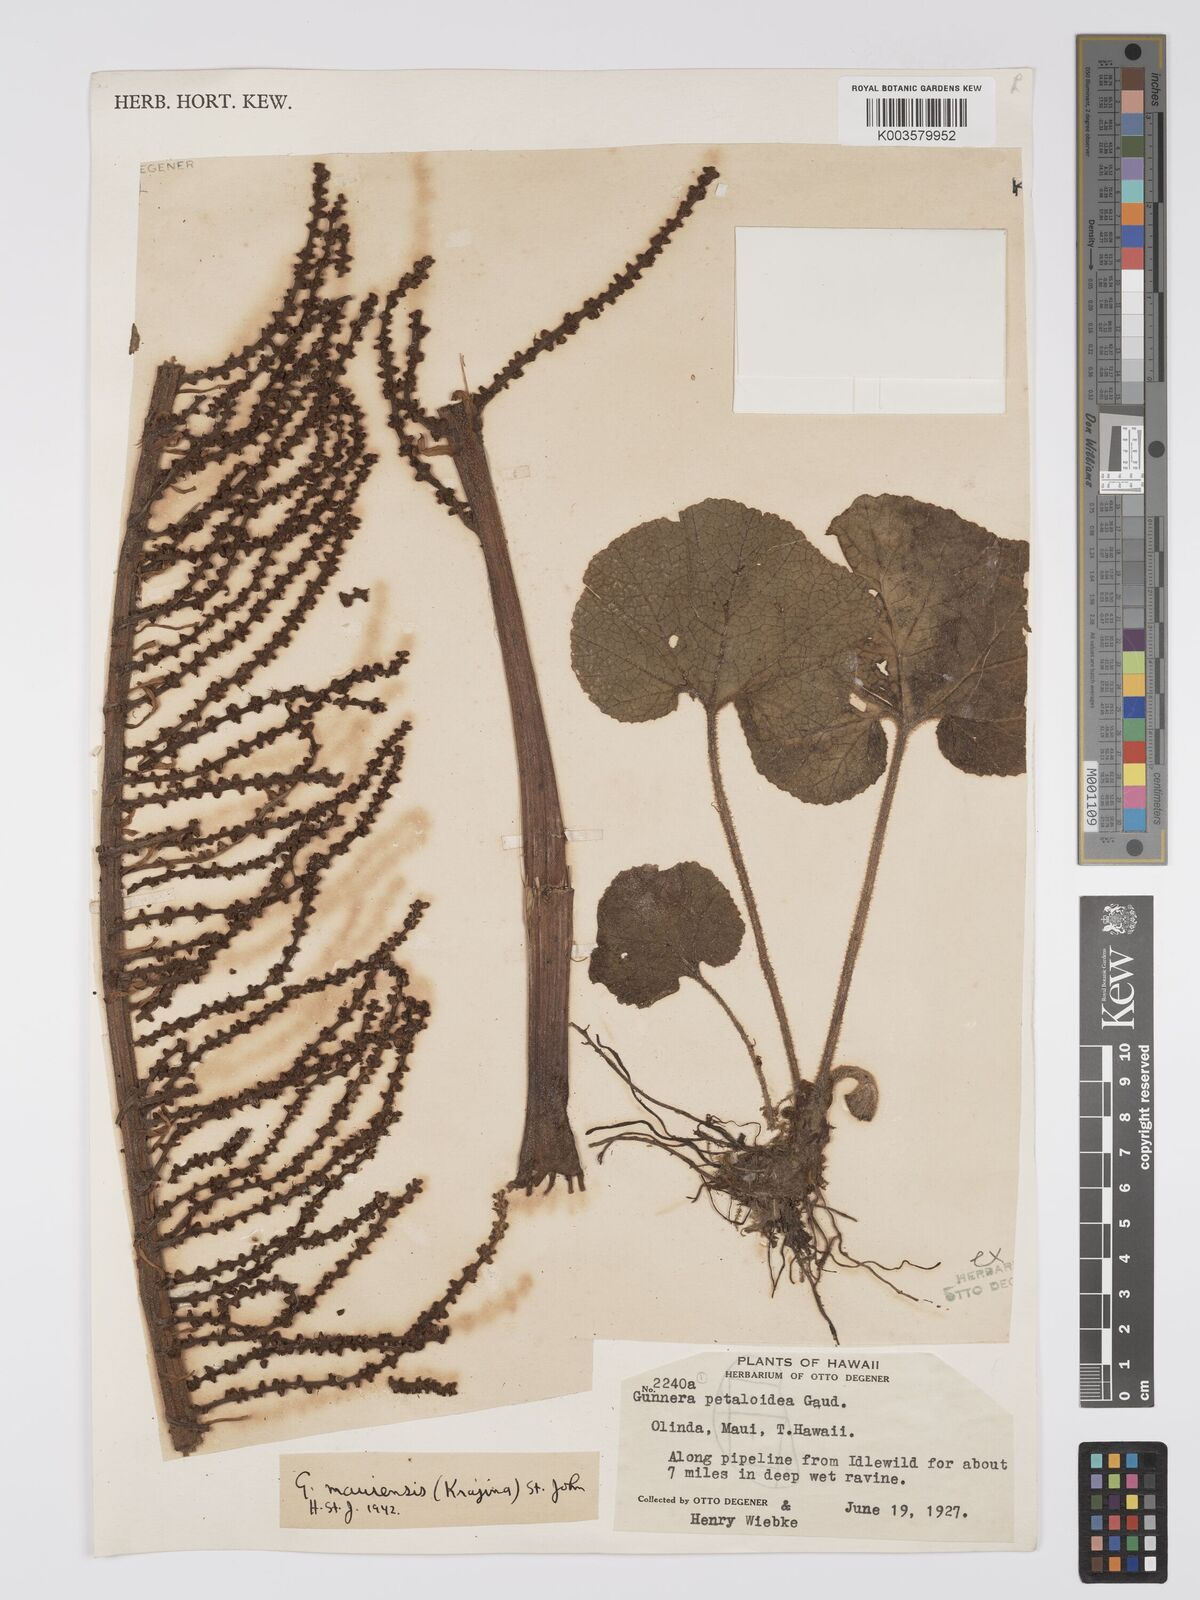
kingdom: Plantae
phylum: Tracheophyta
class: Magnoliopsida
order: Gunnerales
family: Gunneraceae
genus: Gunnera
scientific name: Gunnera petaloidea
